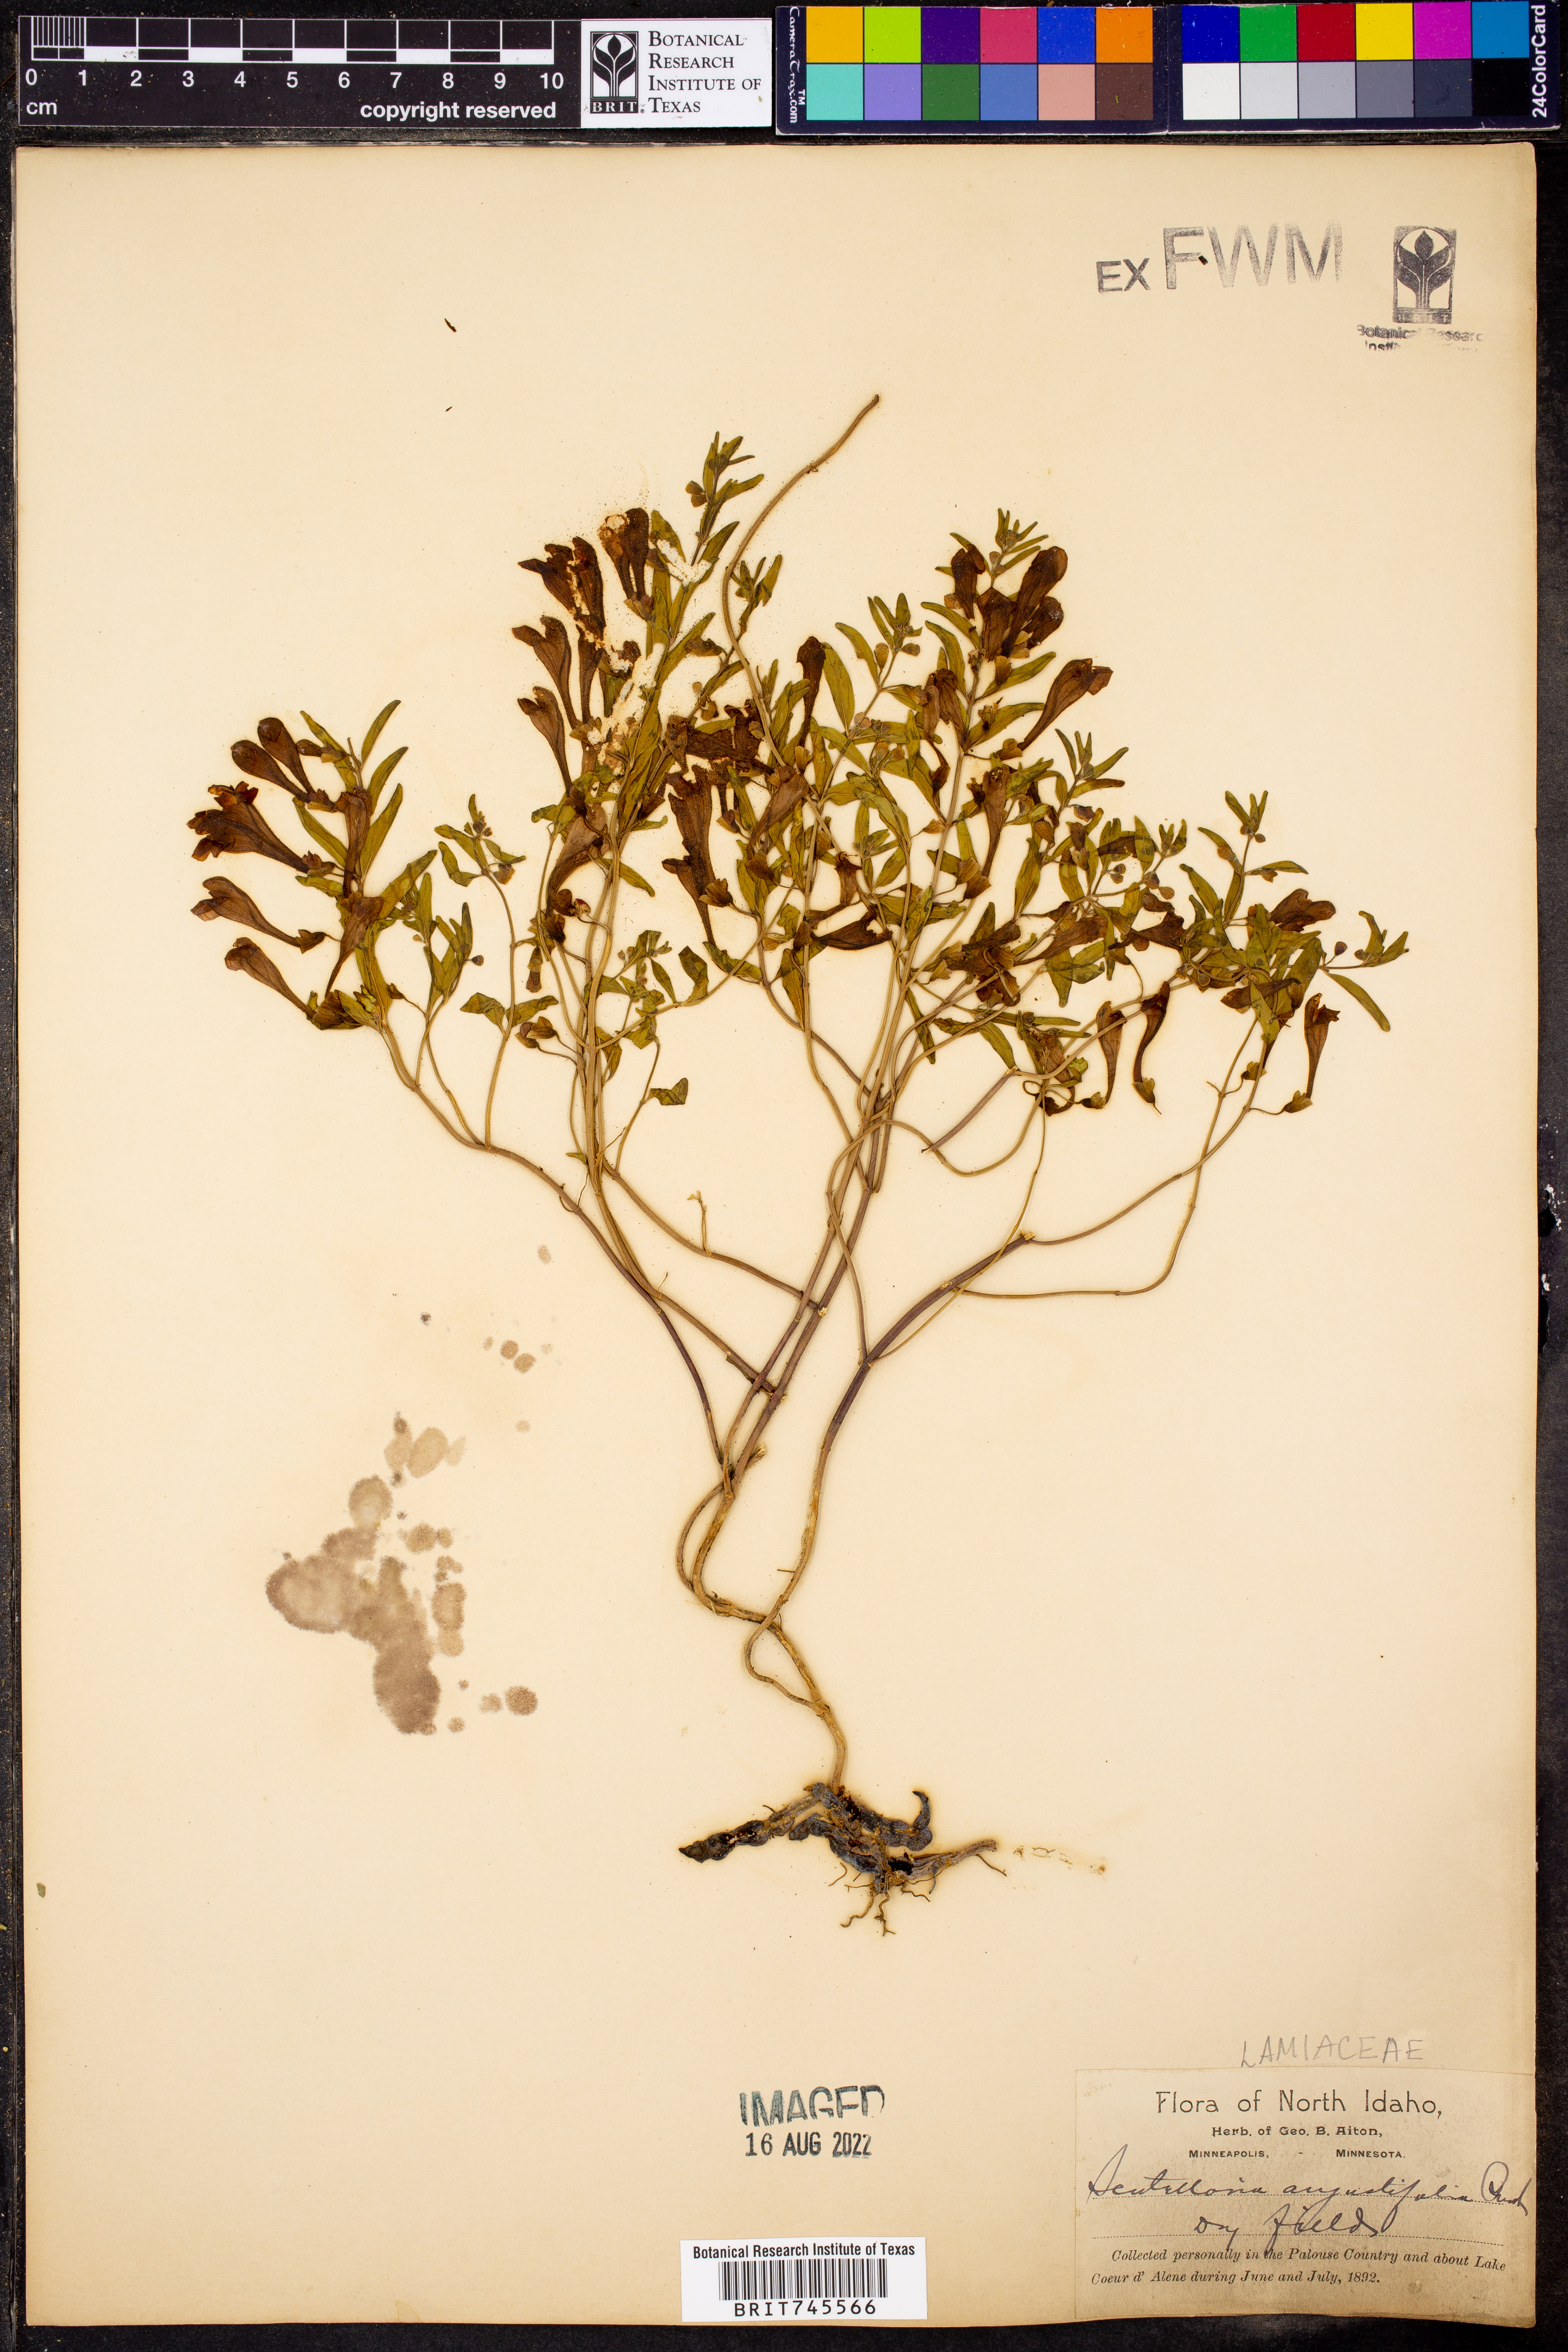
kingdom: Plantae
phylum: Tracheophyta
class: Magnoliopsida
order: Lamiales
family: Lamiaceae
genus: Scutellaria
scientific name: Scutellaria
